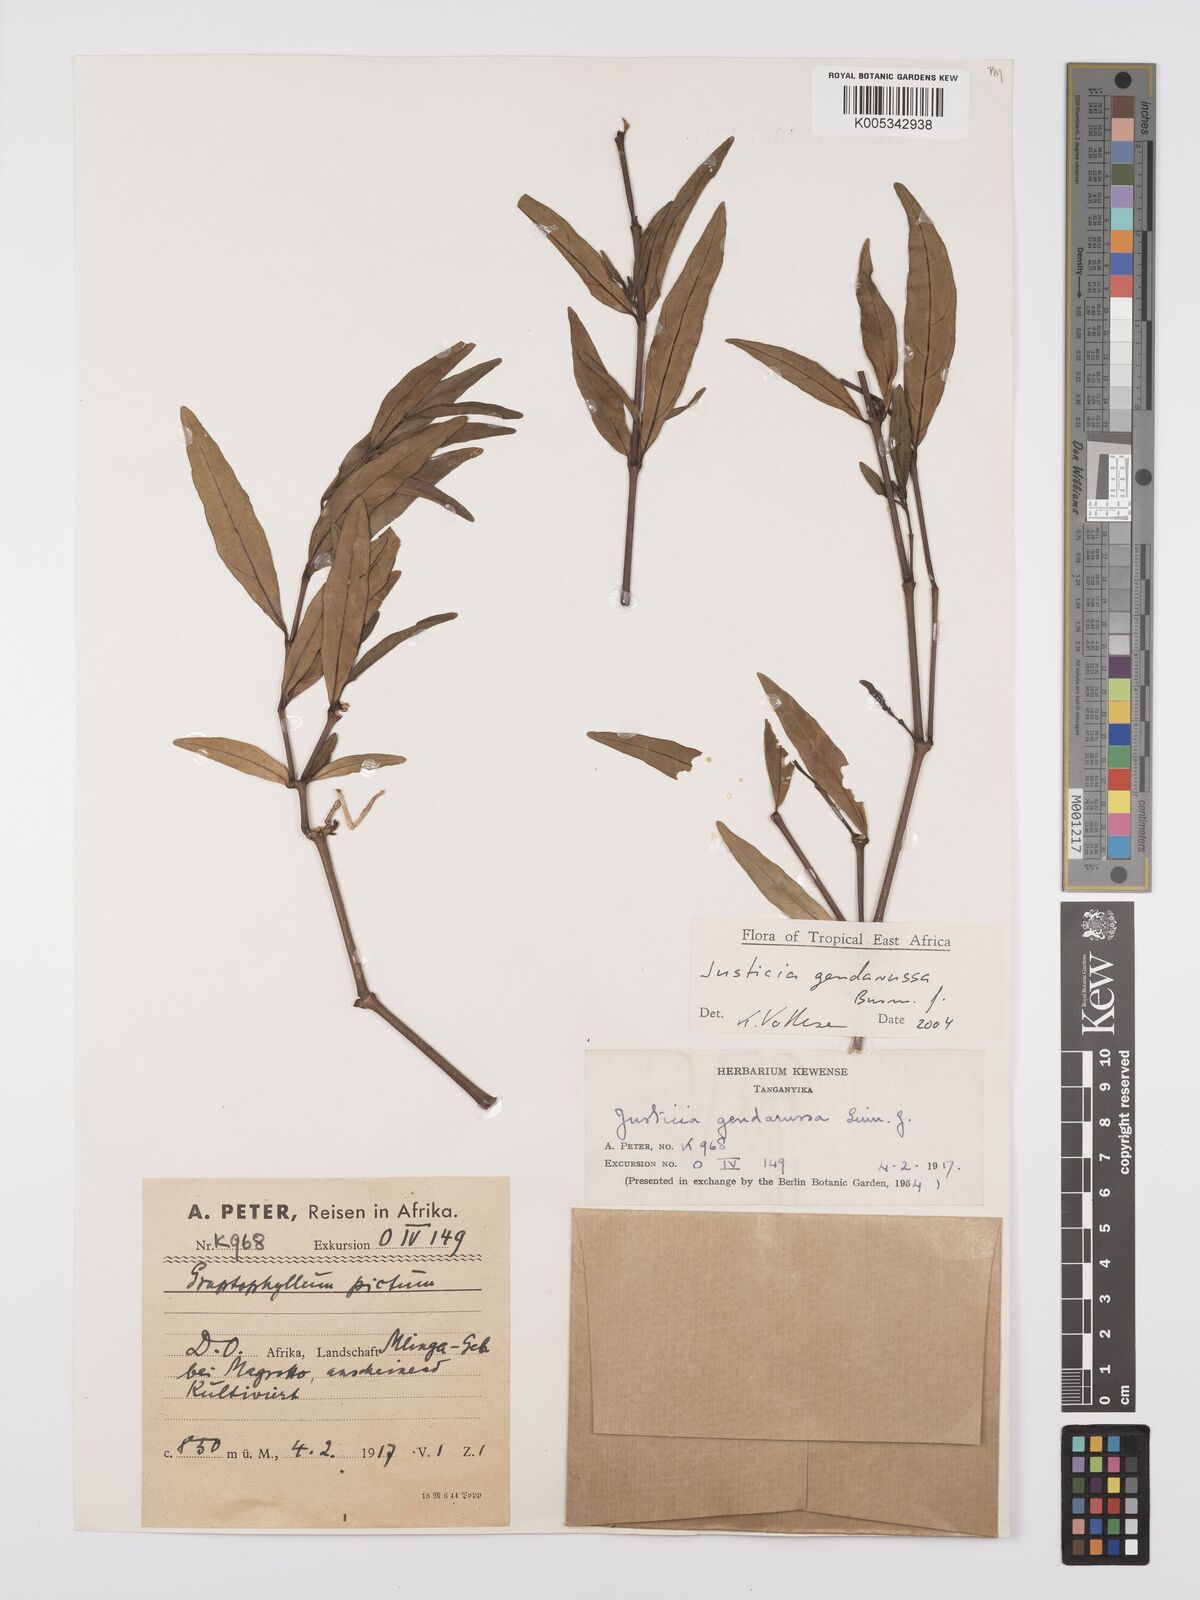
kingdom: Plantae
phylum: Tracheophyta
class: Magnoliopsida
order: Lamiales
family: Acanthaceae
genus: Justicia
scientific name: Justicia
